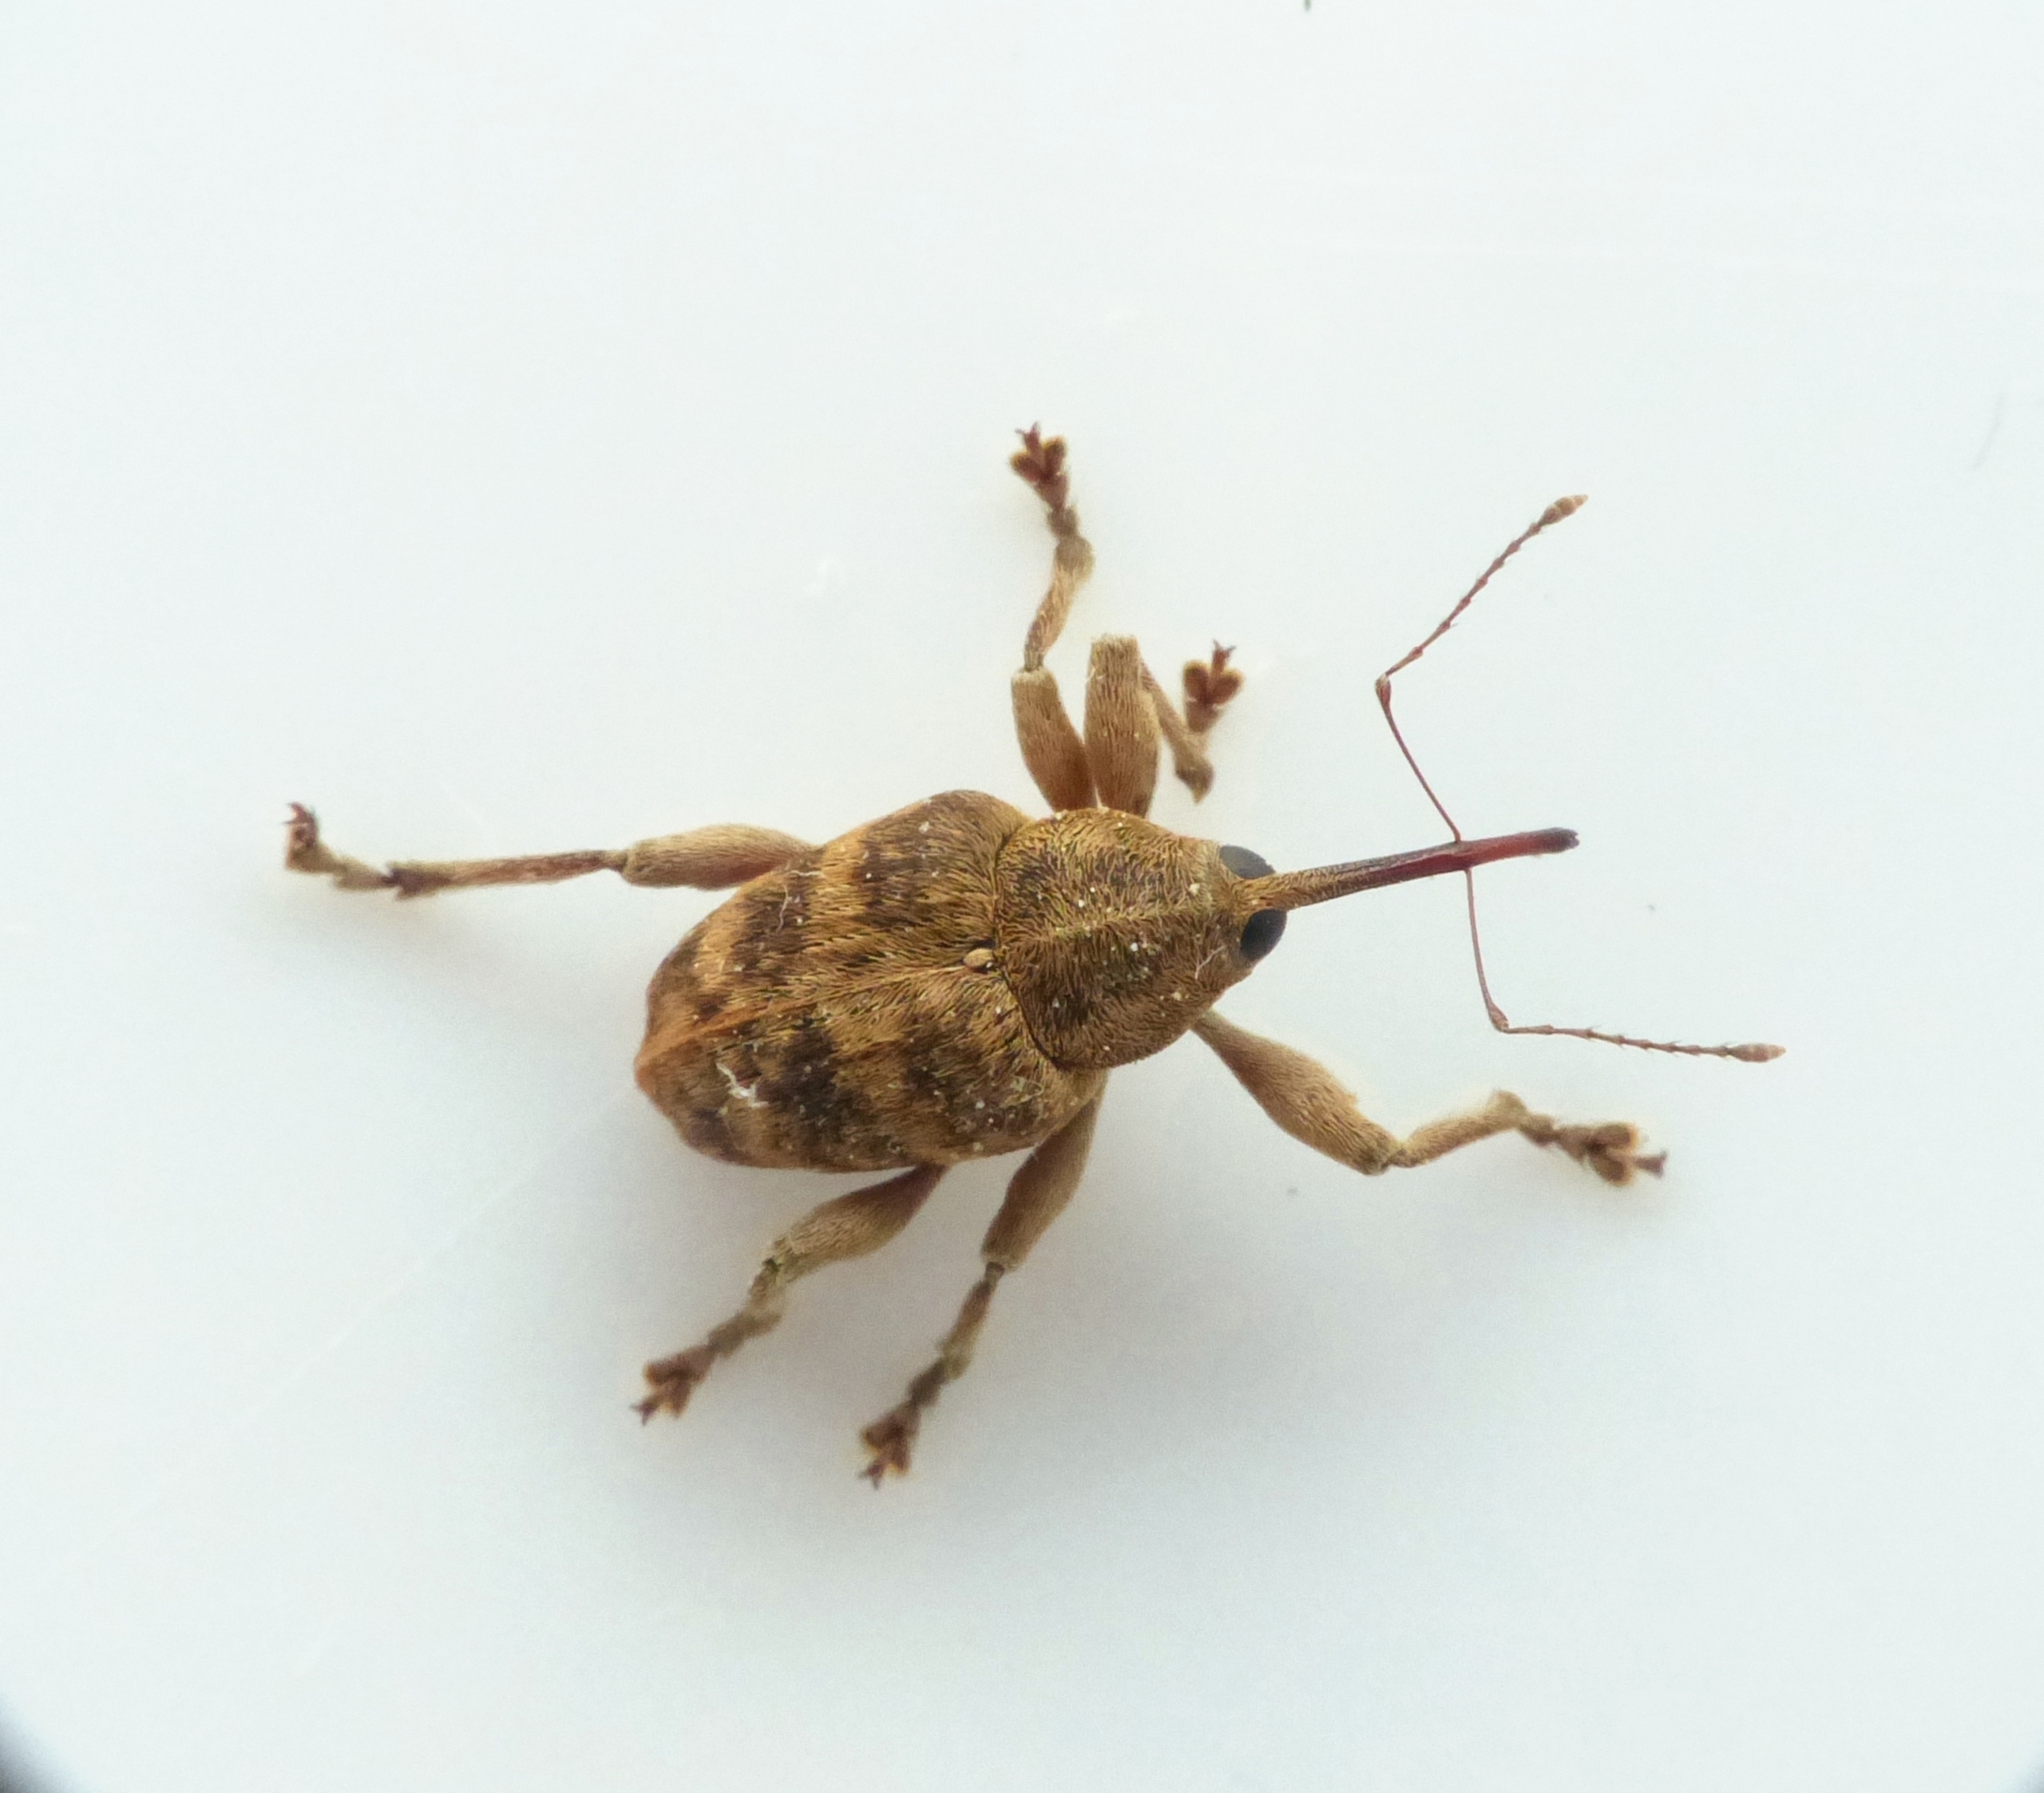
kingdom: Animalia
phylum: Arthropoda
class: Insecta
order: Coleoptera
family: Curculionidae
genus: Curculio
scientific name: Curculio venosus
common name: Agernsnudebille
